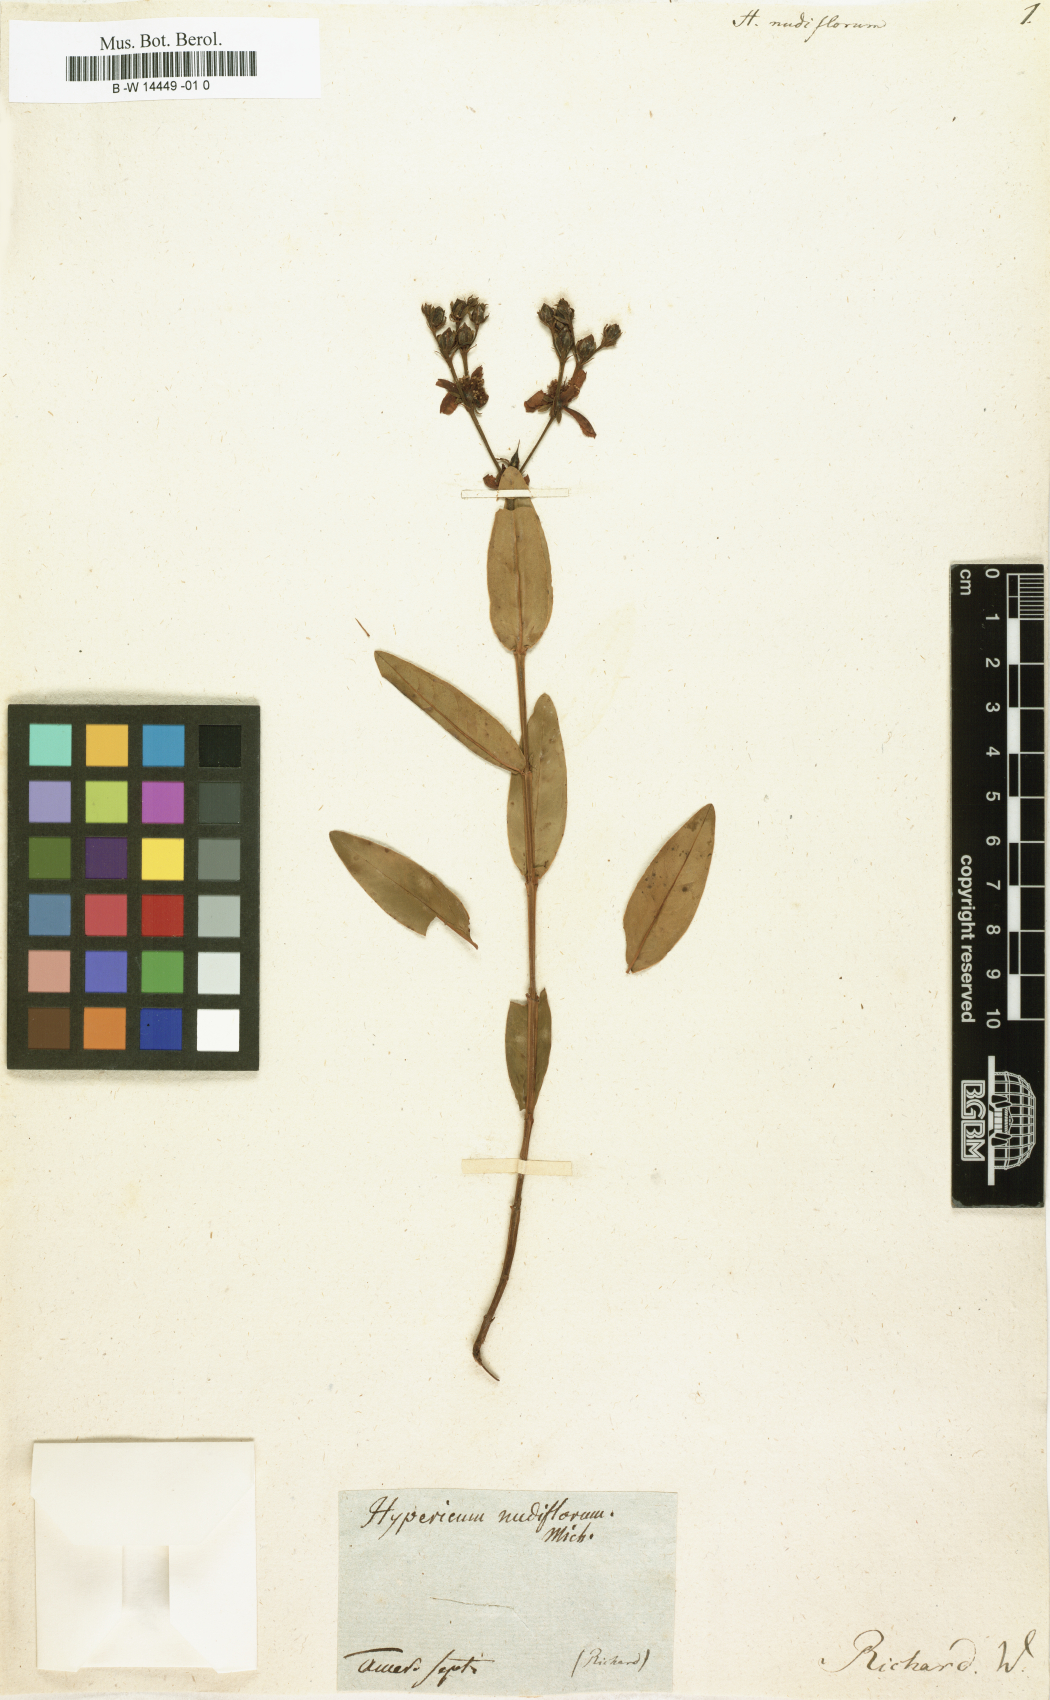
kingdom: Plantae
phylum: Tracheophyta
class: Magnoliopsida
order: Malpighiales
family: Hypericaceae
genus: Hypericum
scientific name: Hypericum nudiflorum
